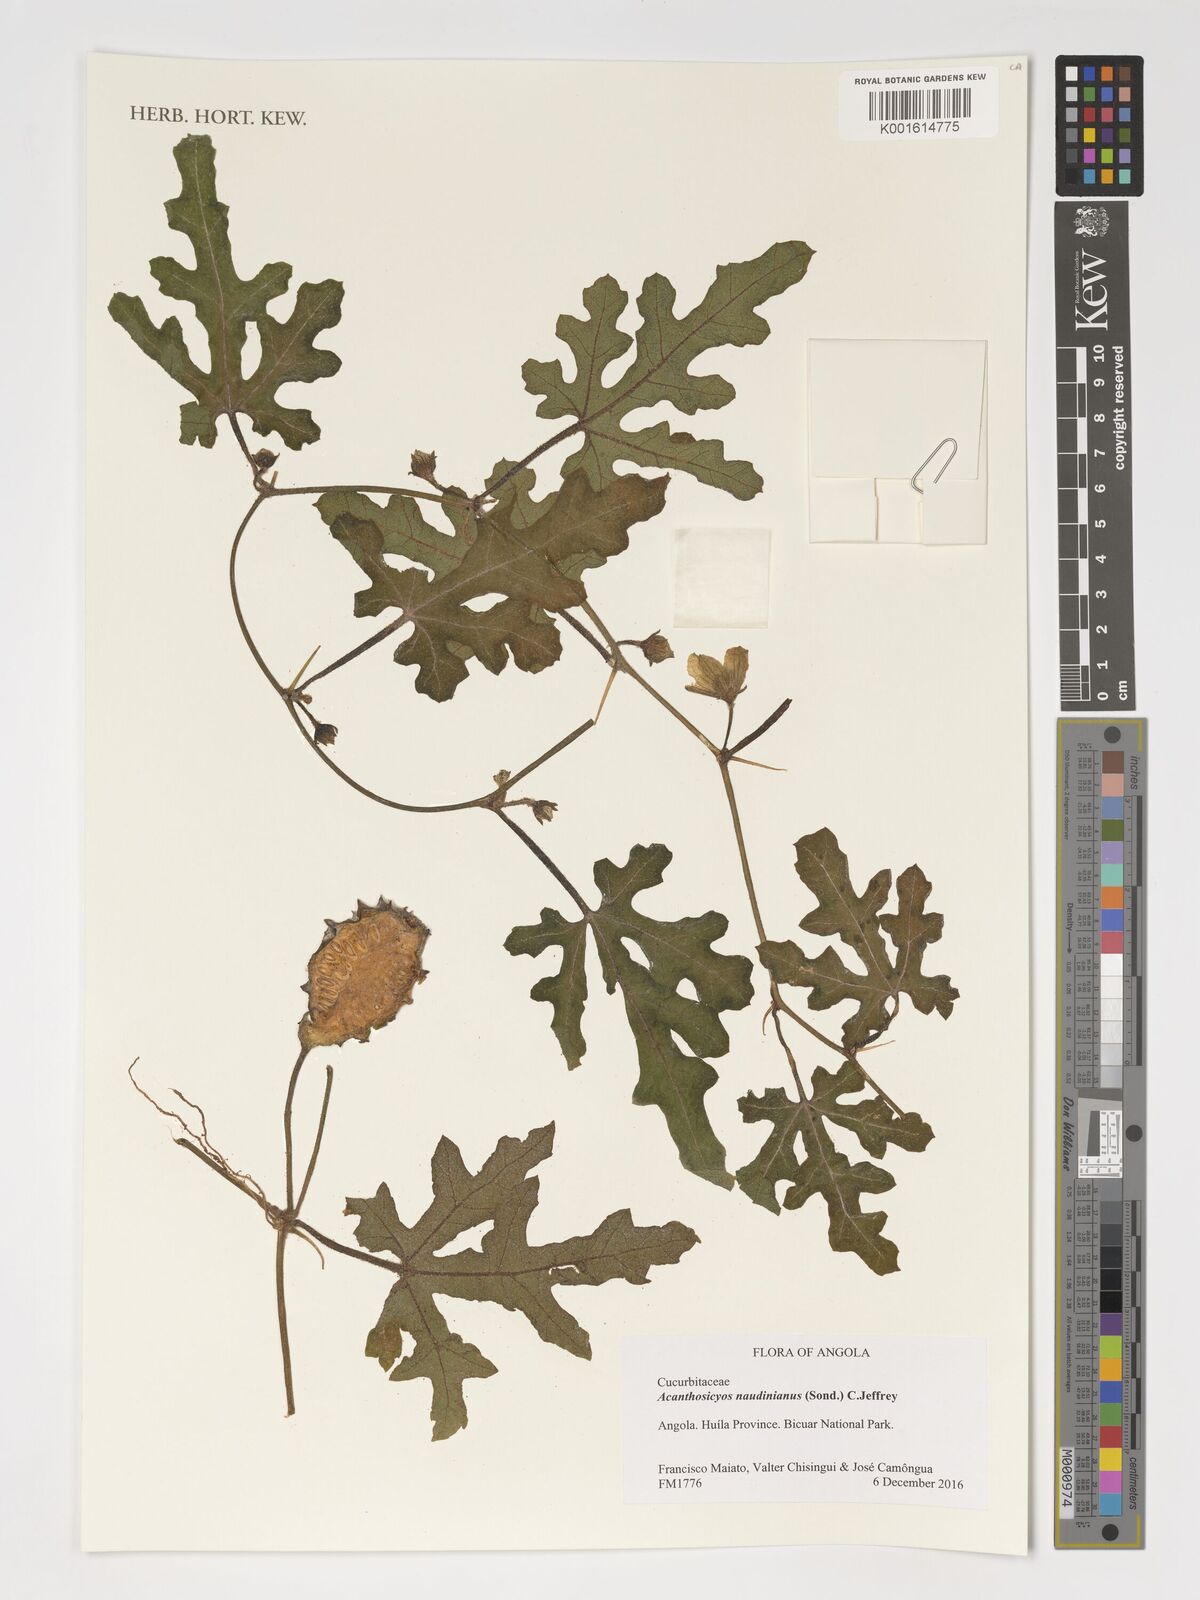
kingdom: Plantae
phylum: Tracheophyta
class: Magnoliopsida
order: Cucurbitales
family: Cucurbitaceae
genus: Citrullus
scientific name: Citrullus naudinianus
